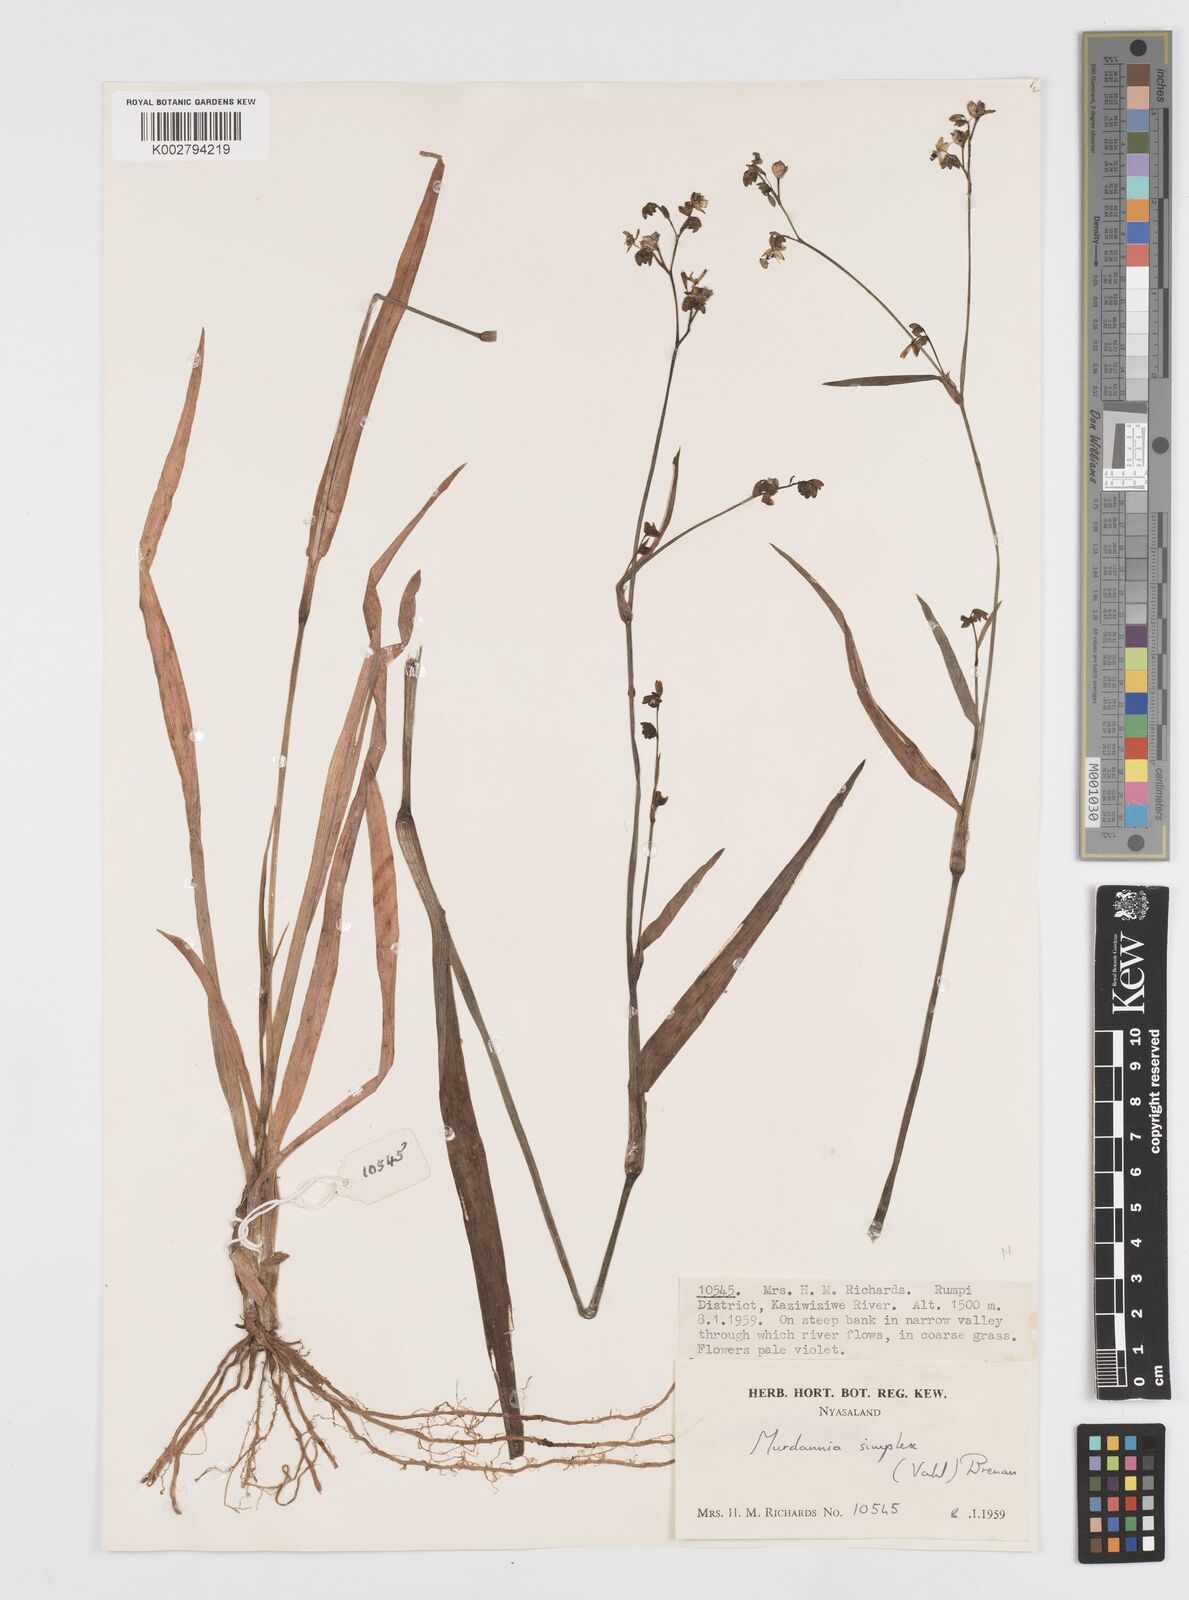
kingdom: Plantae
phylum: Tracheophyta
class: Liliopsida
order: Commelinales
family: Commelinaceae
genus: Murdannia
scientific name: Murdannia simplex
